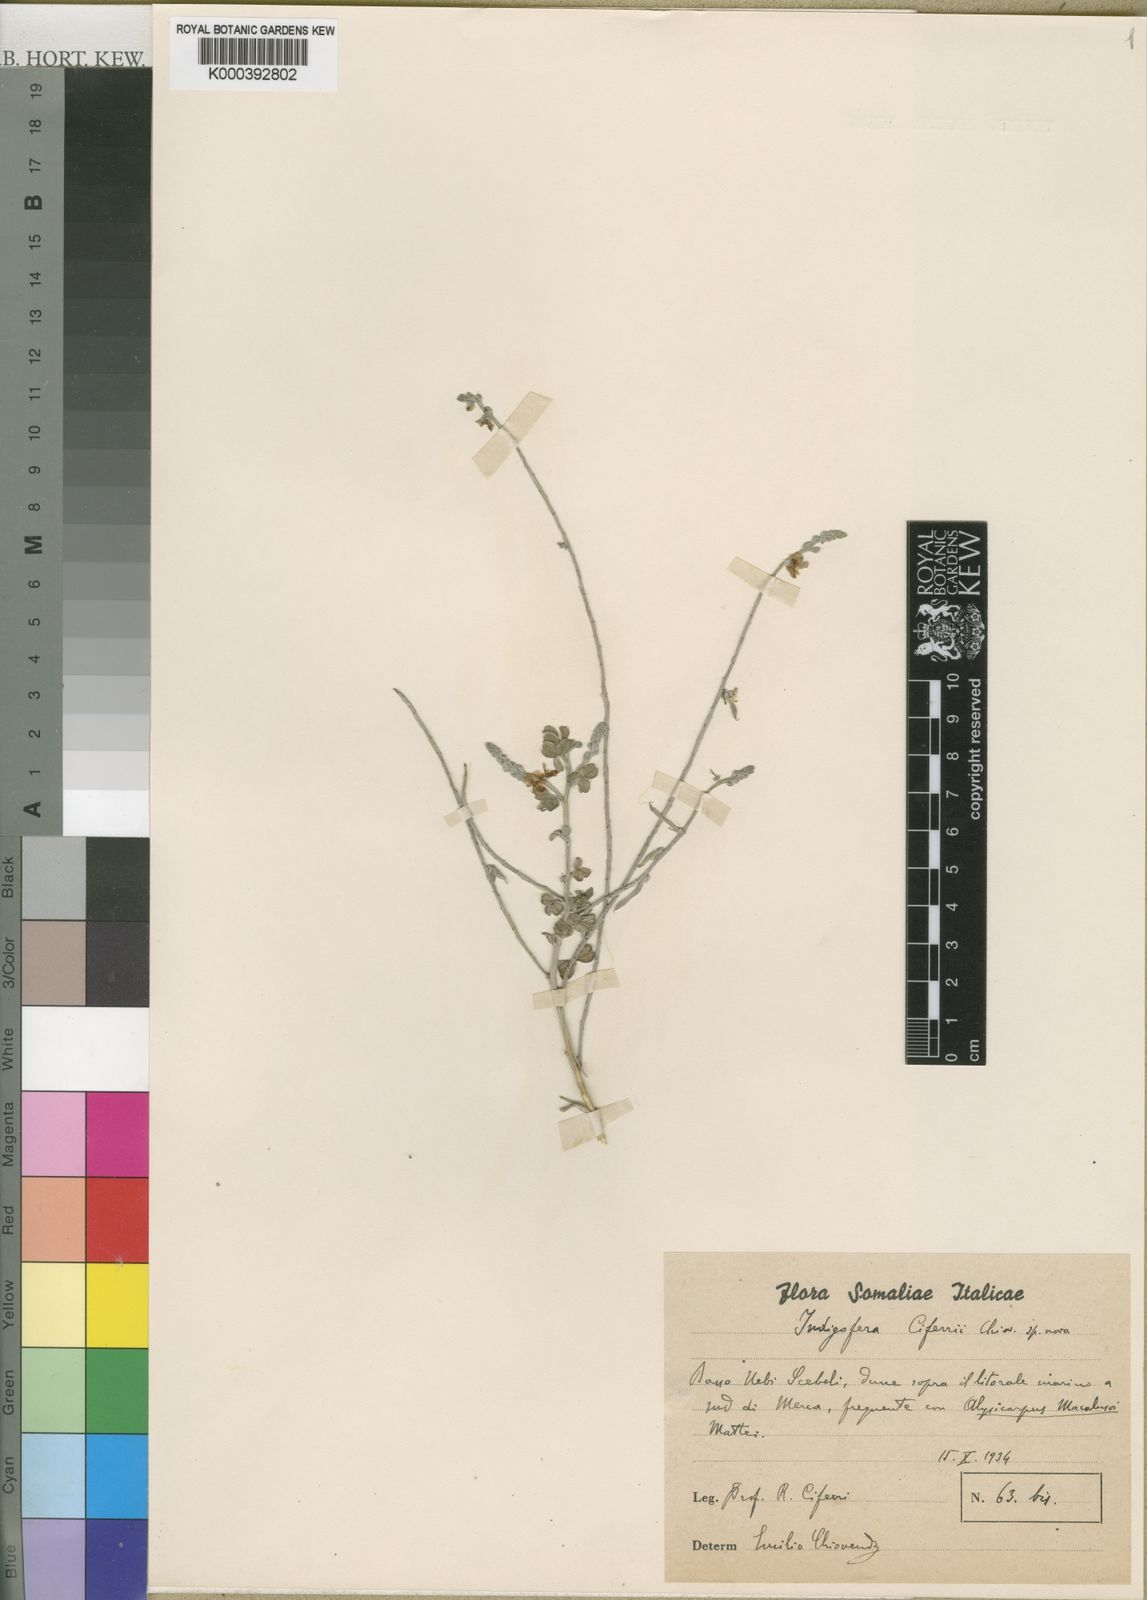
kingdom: Plantae
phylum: Tracheophyta
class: Magnoliopsida
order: Fabales
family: Fabaceae
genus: Indigofera
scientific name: Indigofera ciferrii
